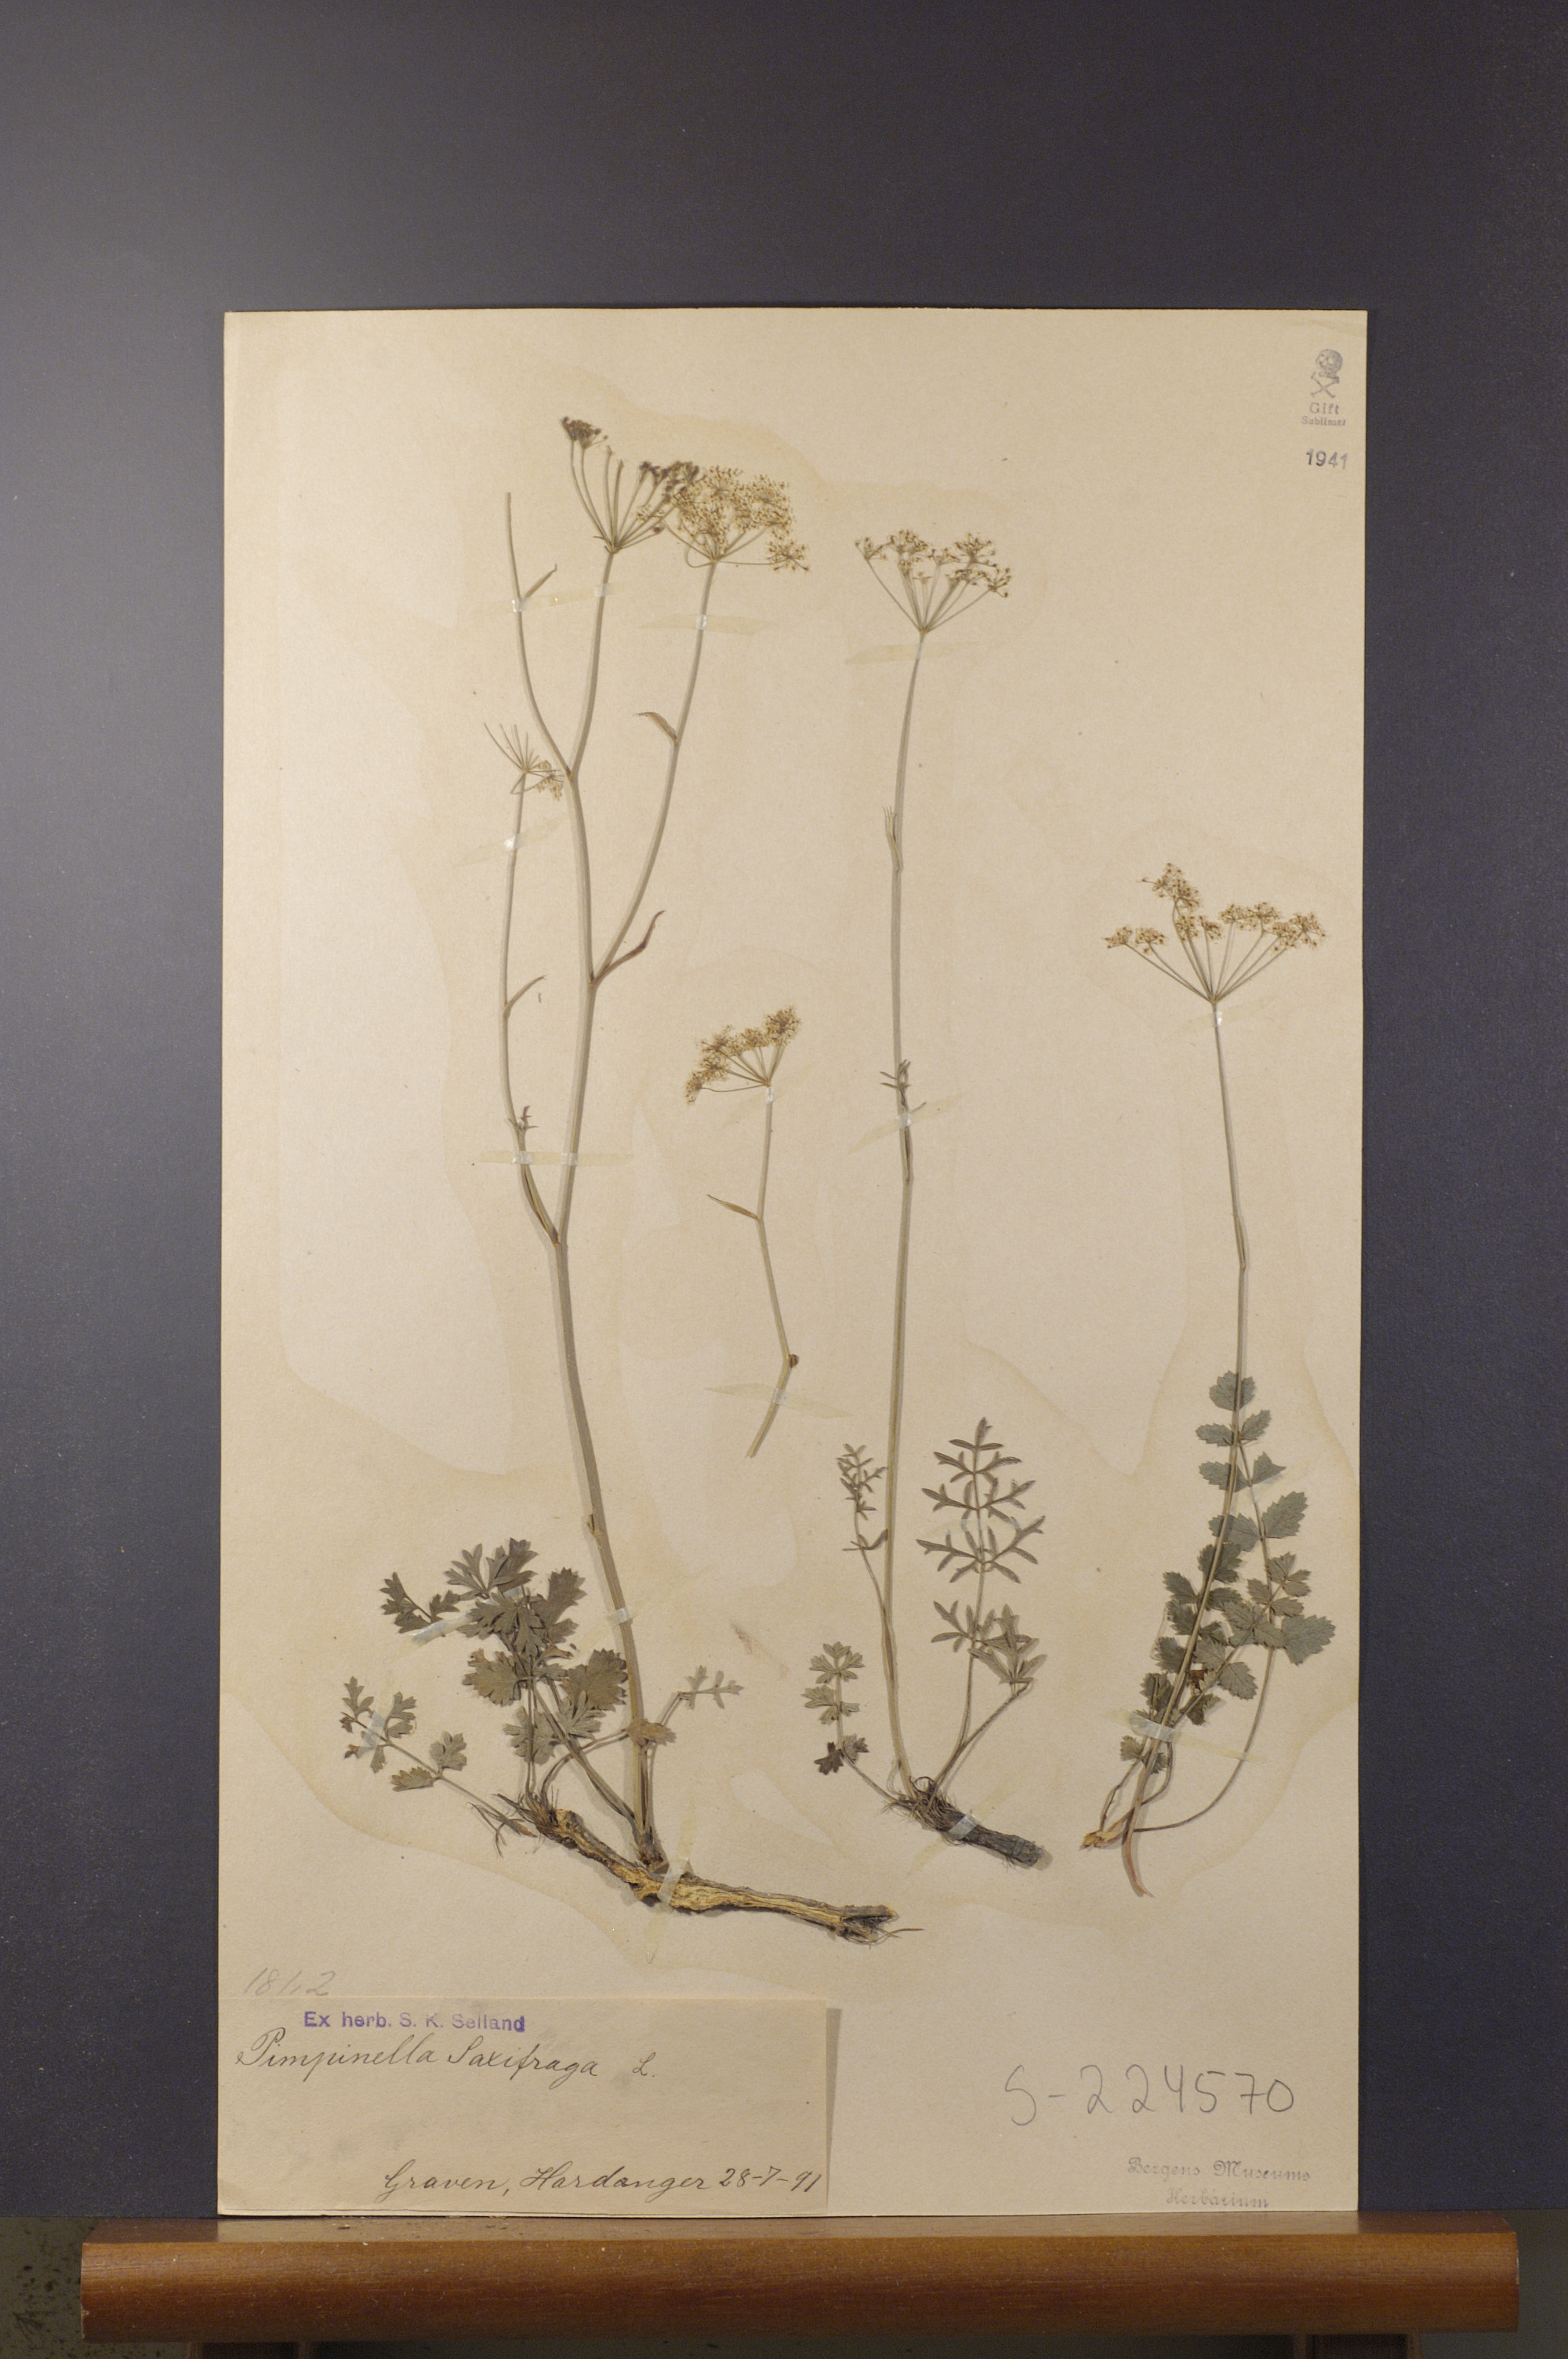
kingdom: Plantae
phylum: Tracheophyta
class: Magnoliopsida
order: Apiales
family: Apiaceae
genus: Pimpinella
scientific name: Pimpinella saxifraga
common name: Burnet-saxifrage
